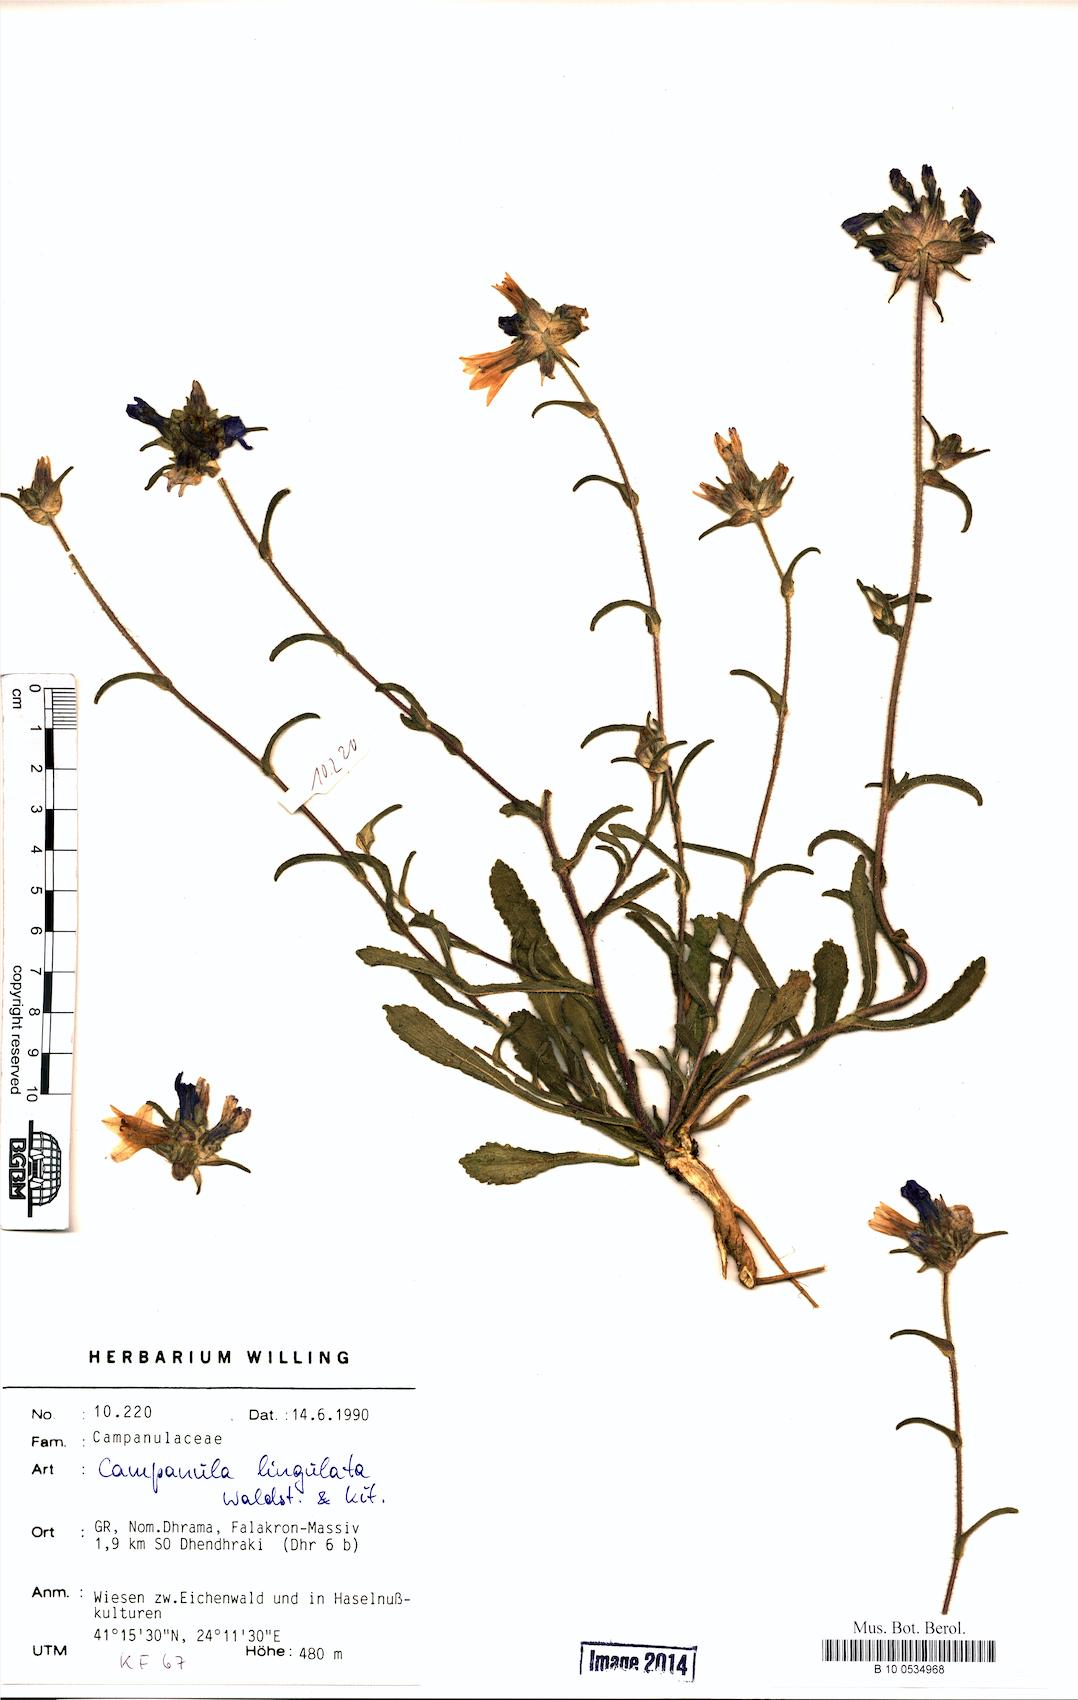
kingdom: Plantae
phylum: Tracheophyta
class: Magnoliopsida
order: Asterales
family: Campanulaceae
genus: Campanula
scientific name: Campanula lingulata
